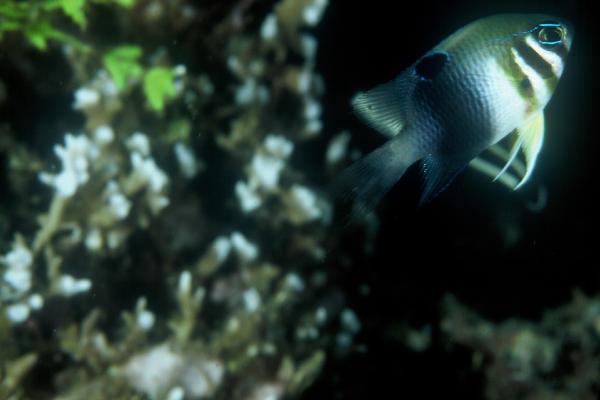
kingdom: Animalia
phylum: Chordata
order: Perciformes
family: Pomacentridae
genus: Neoglyphidodon
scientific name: Neoglyphidodon thoracotaeniatus
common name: Bar-head damsel
